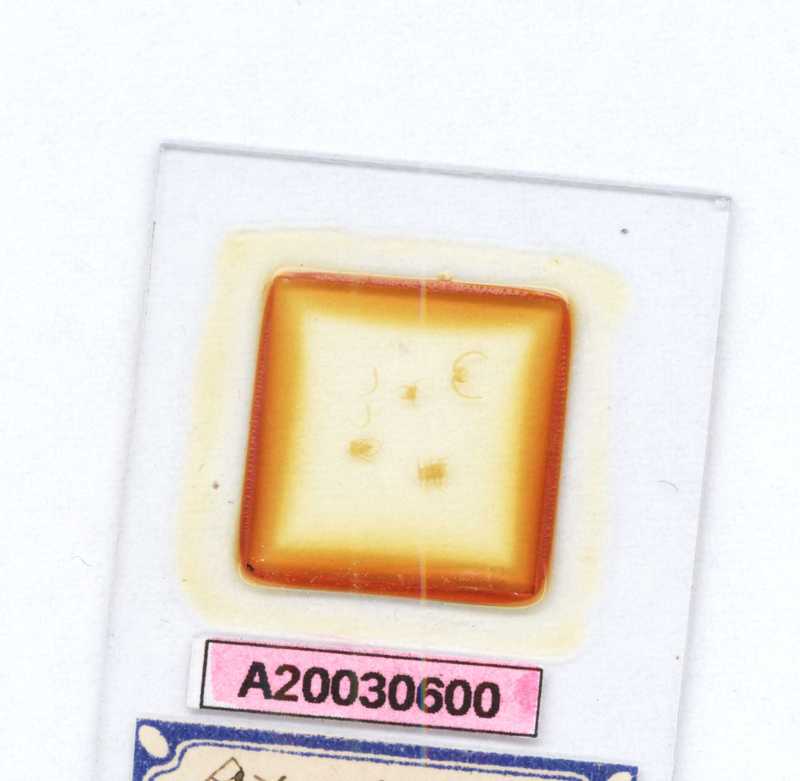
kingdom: Animalia
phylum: Arthropoda
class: Chilopoda
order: Scolopendromorpha
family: Scolopendridae
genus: Otostigmus
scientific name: Otostigmus sulcipes
